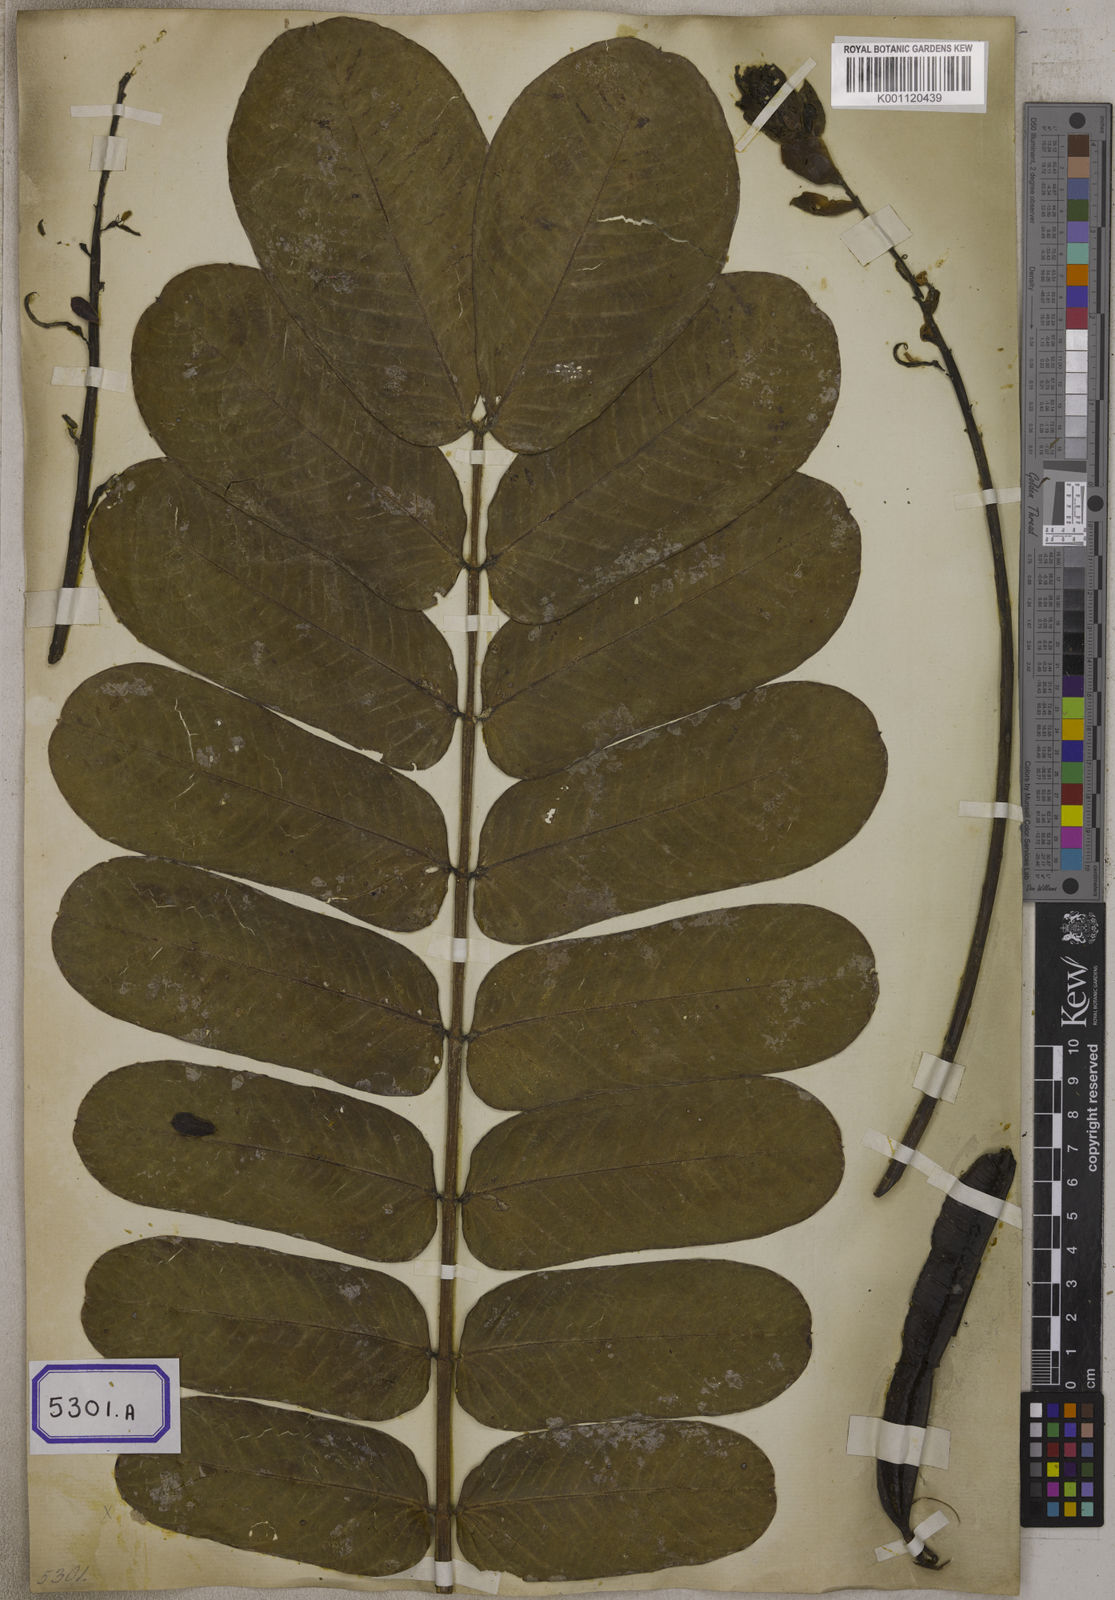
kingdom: Plantae
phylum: Tracheophyta
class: Magnoliopsida
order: Fabales
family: Fabaceae
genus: Senna
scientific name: Senna alata
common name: Emperor's candlesticks
